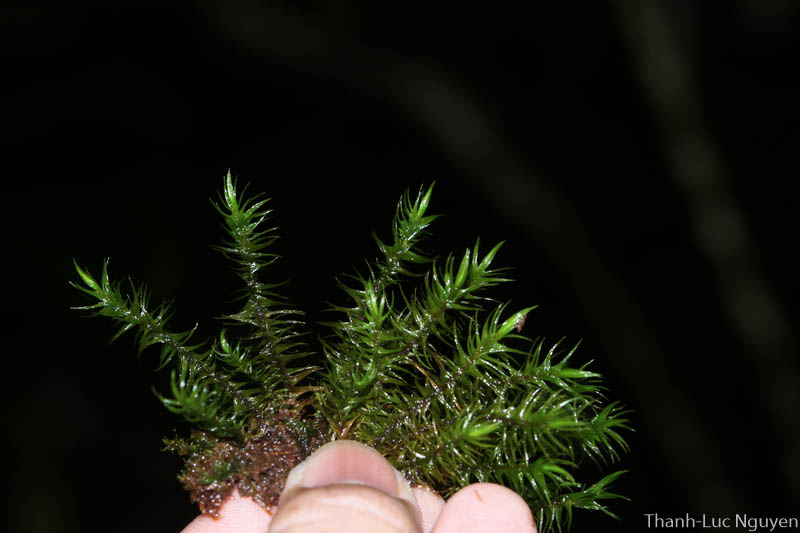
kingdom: Plantae
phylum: Bryophyta
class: Bryopsida
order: Dicranales
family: Dicranaceae
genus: Dicranoloma
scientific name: Dicranoloma
